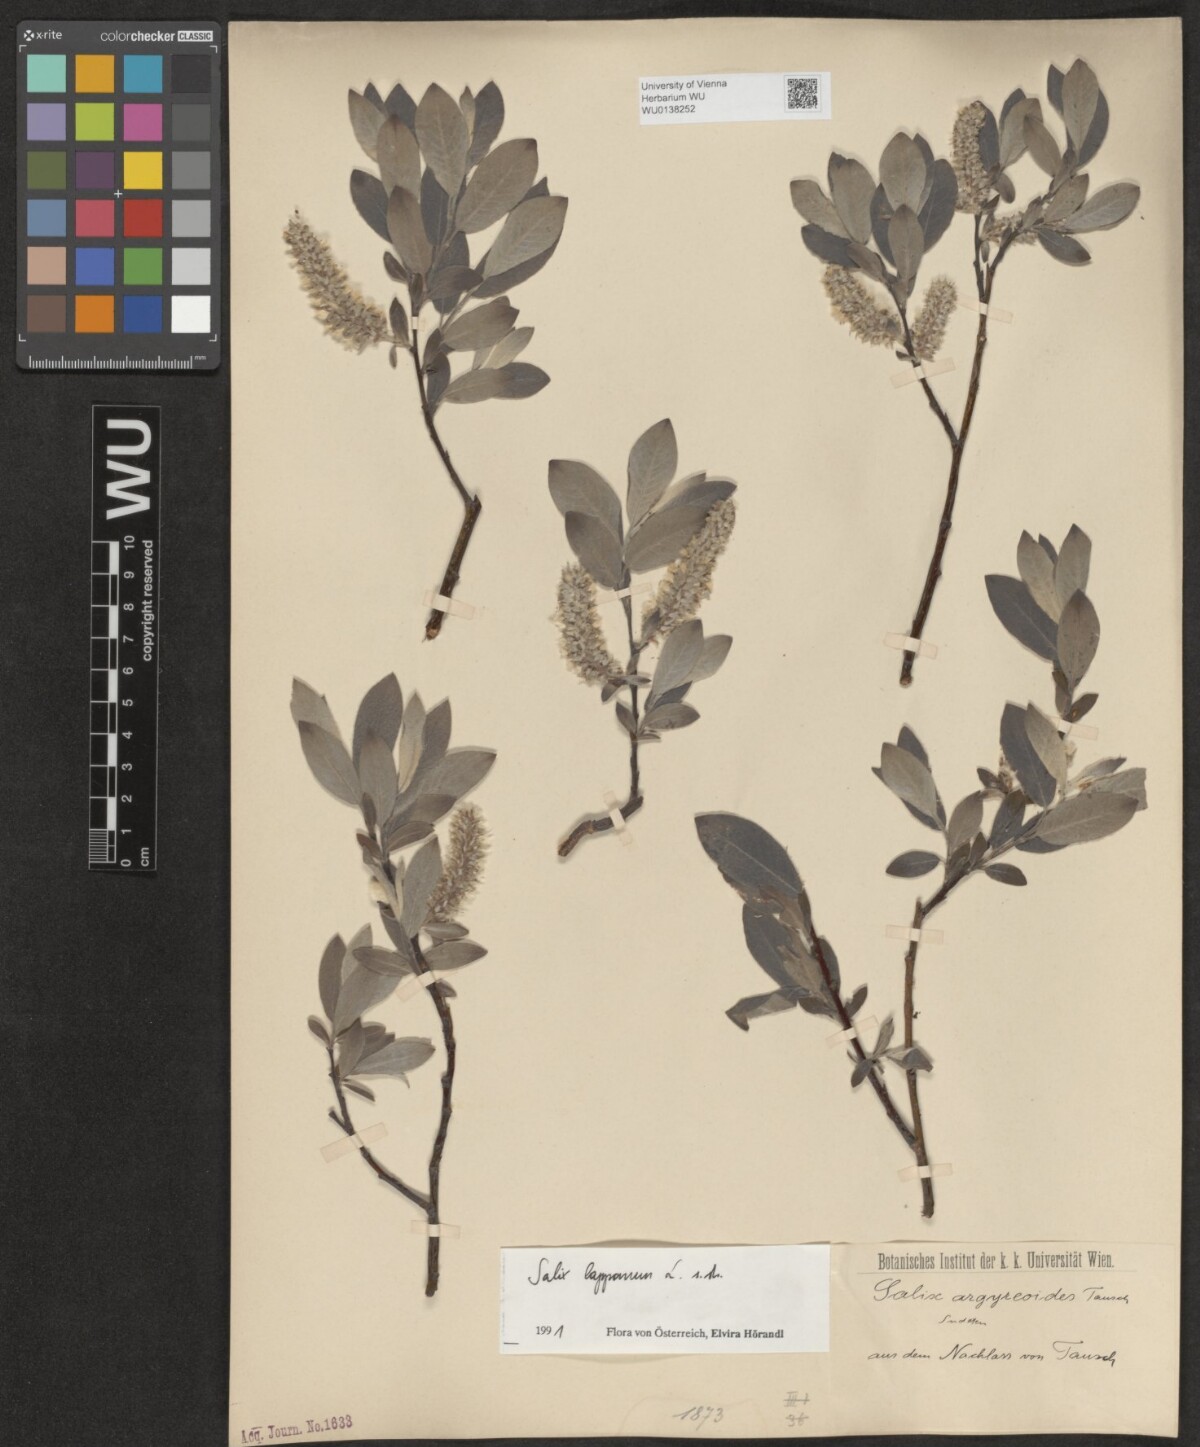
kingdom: Plantae
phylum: Tracheophyta
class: Magnoliopsida
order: Malpighiales
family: Salicaceae
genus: Salix
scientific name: Salix lapponum
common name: Downy willow
